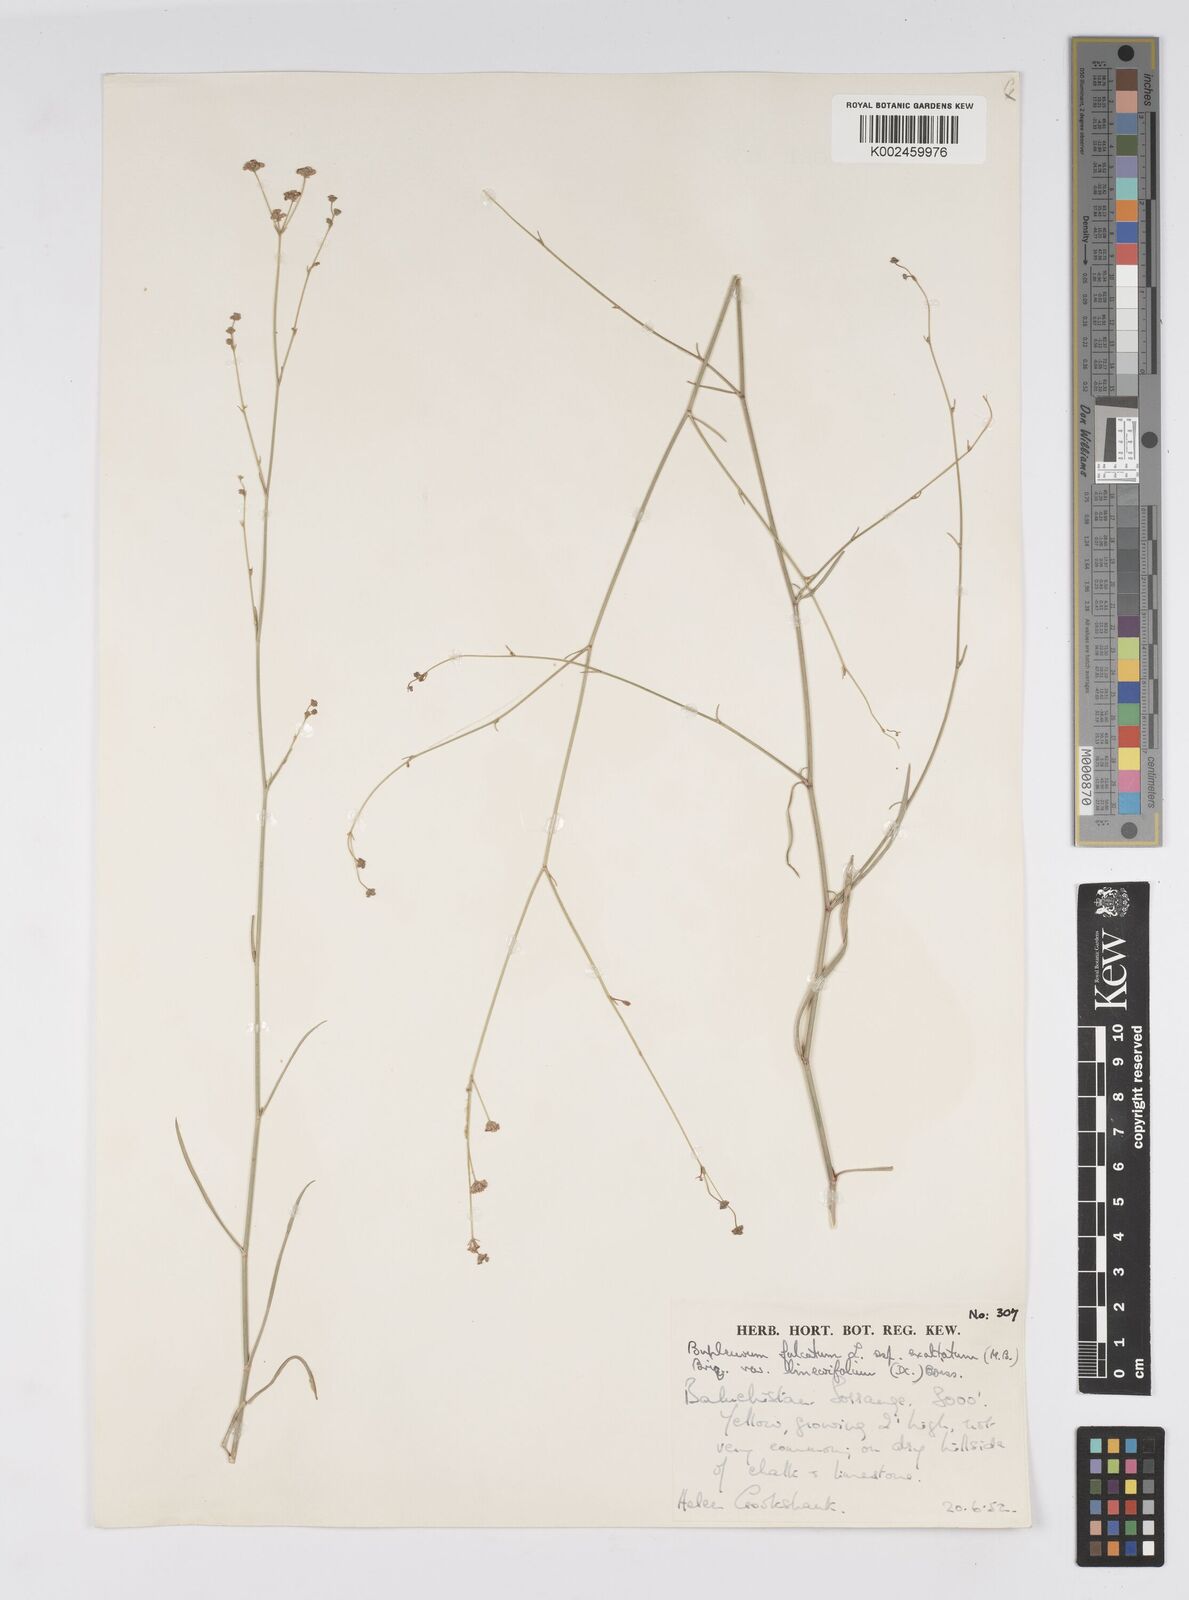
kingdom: Plantae
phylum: Tracheophyta
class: Magnoliopsida
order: Apiales
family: Apiaceae
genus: Bupleurum
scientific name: Bupleurum falcatum
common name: Sickle-leaved hare's-ear
